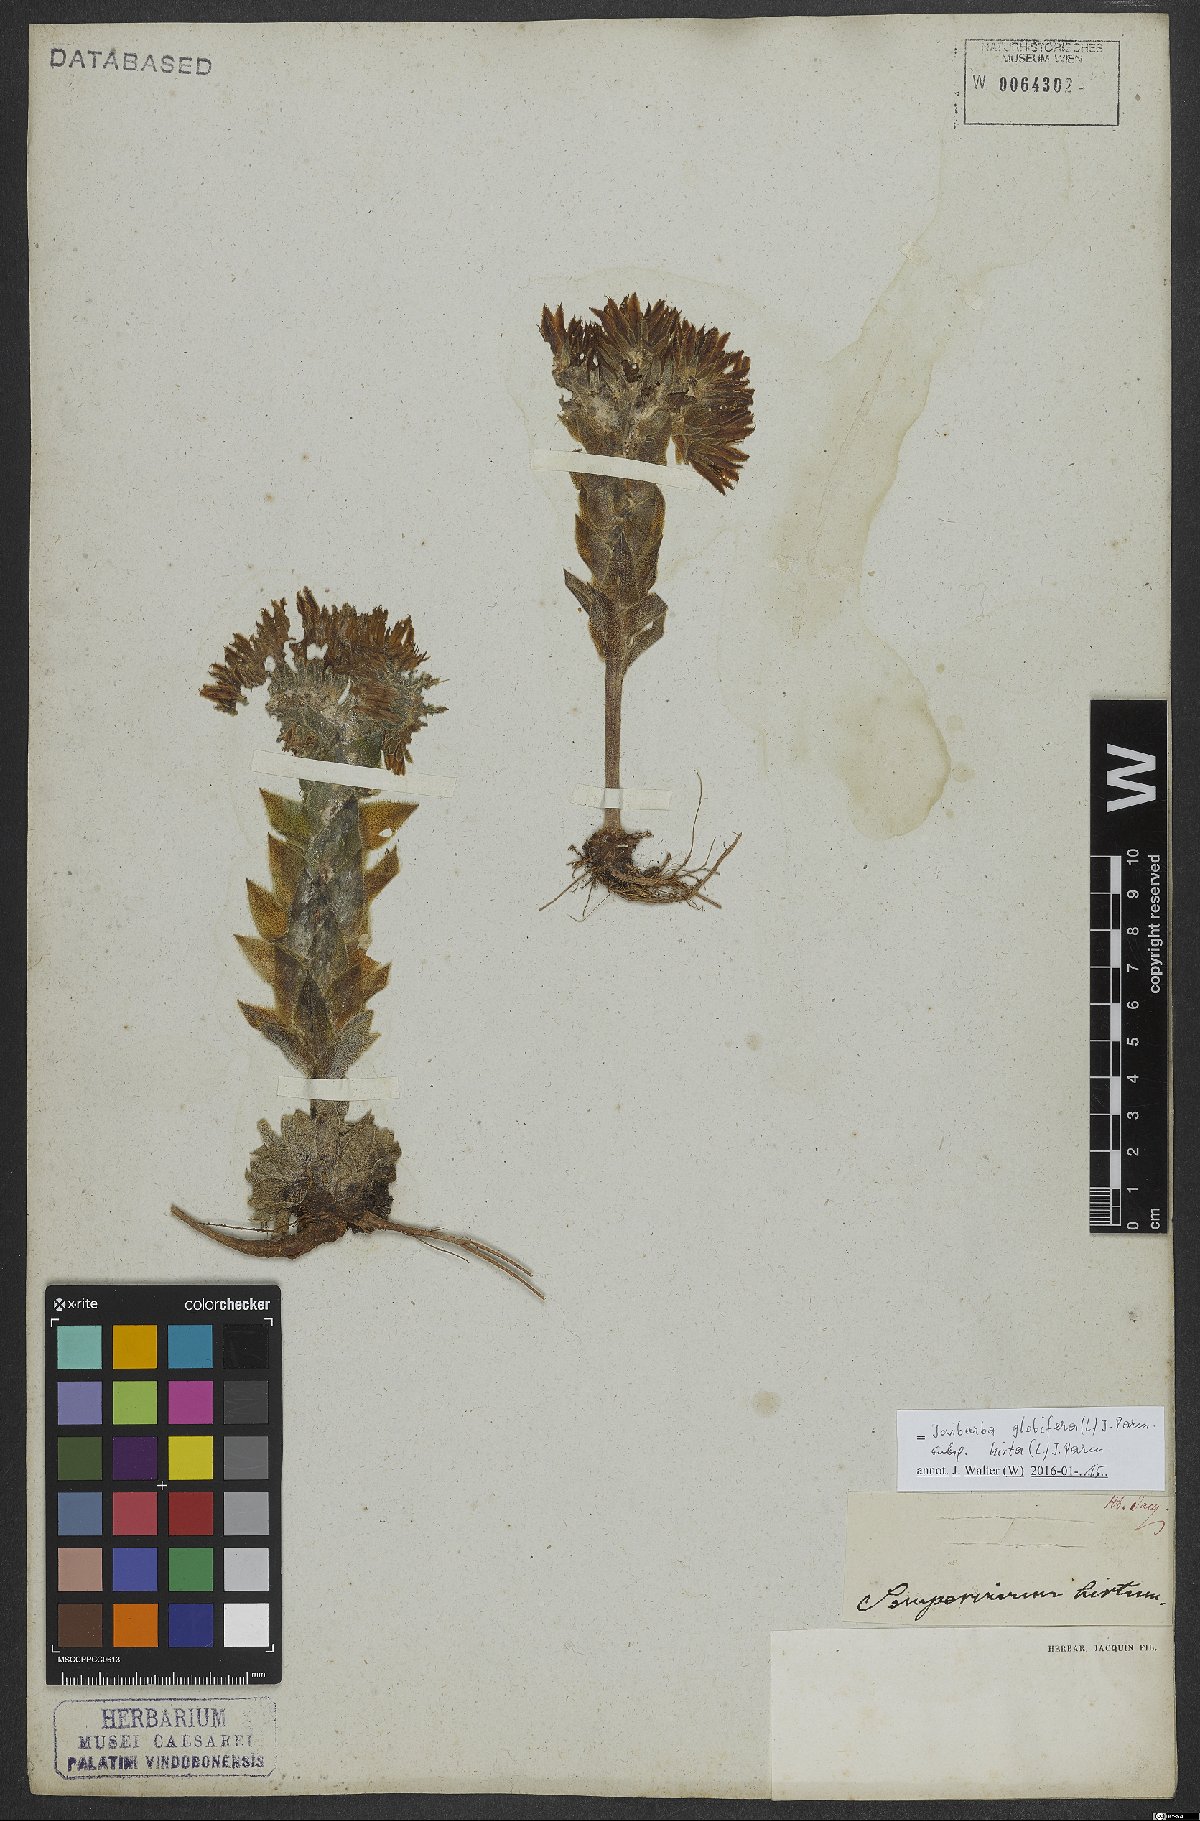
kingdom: Plantae
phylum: Tracheophyta
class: Magnoliopsida
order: Saxifragales
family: Crassulaceae
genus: Sempervivum
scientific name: Sempervivum globiferum
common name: Rolling hen-and-chicks
